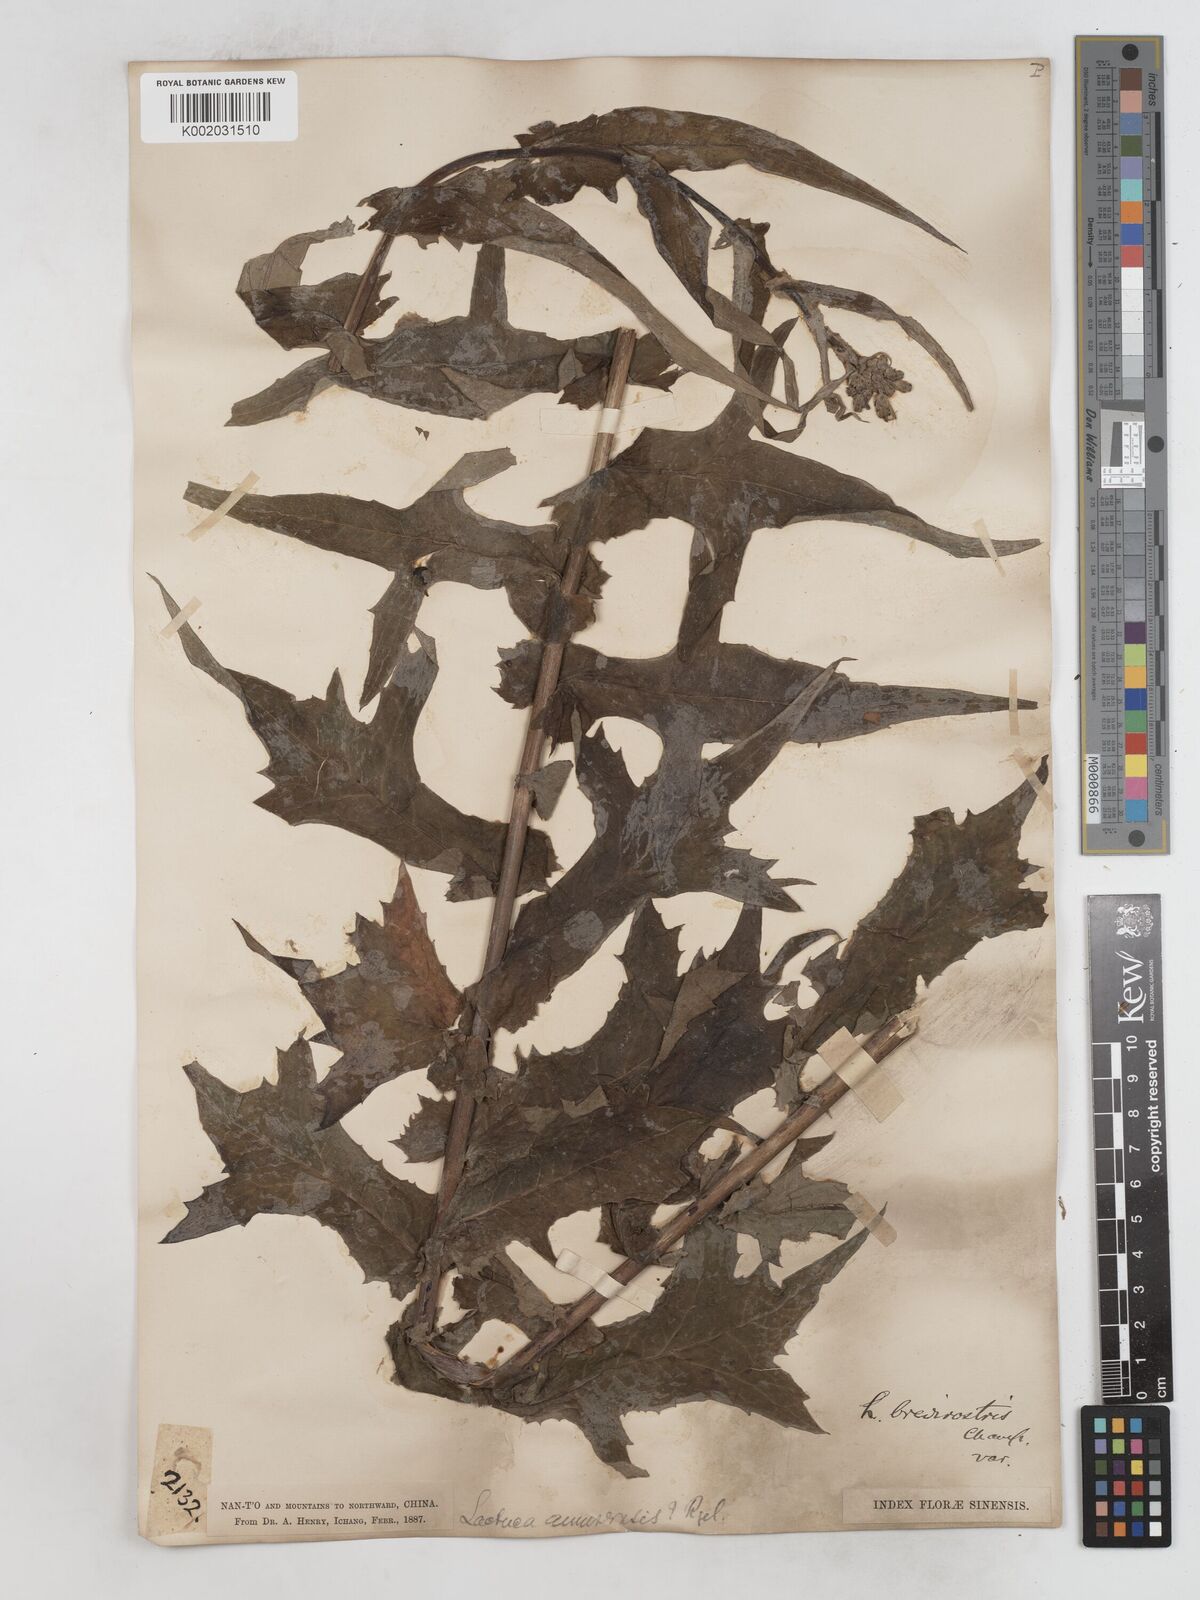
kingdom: Plantae
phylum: Tracheophyta
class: Magnoliopsida
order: Asterales
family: Asteraceae
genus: Lactuca
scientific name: Lactuca
